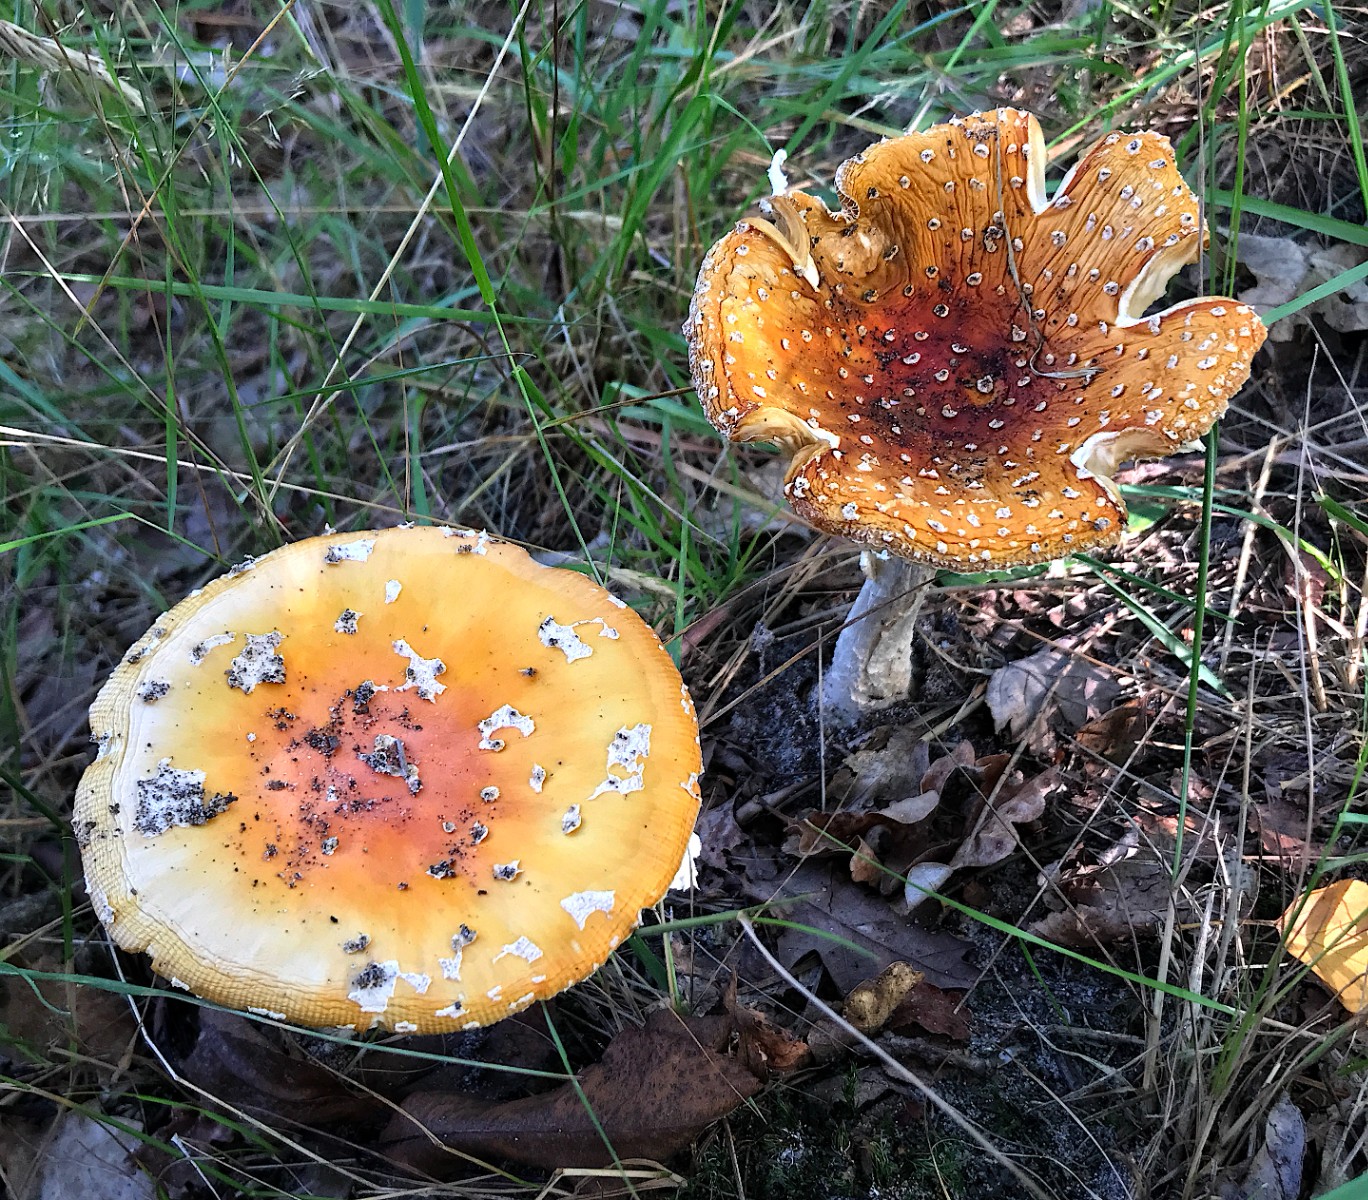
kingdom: Fungi
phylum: Basidiomycota
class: Agaricomycetes
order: Agaricales
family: Amanitaceae
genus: Amanita
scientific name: Amanita muscaria
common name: rød fluesvamp
